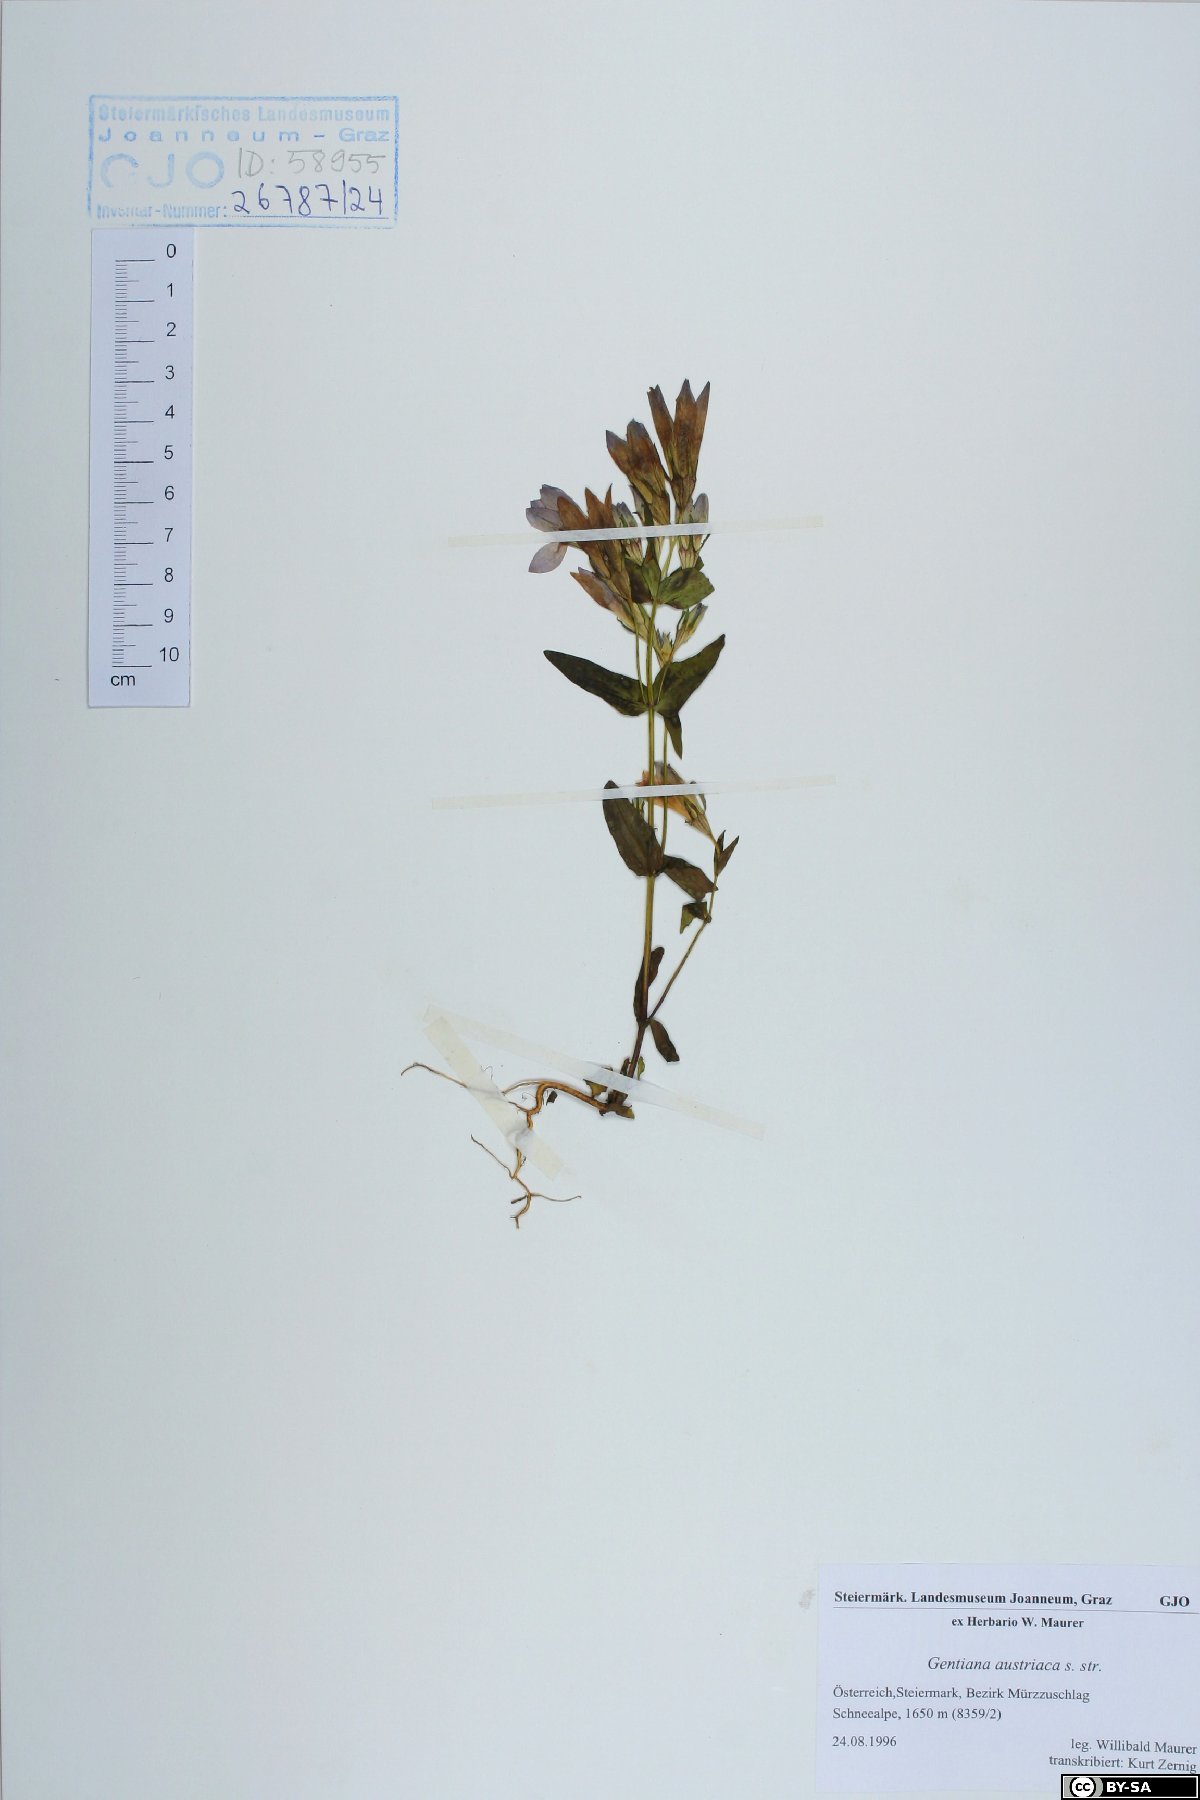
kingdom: Plantae
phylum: Tracheophyta
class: Magnoliopsida
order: Gentianales
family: Gentianaceae
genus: Gentianella
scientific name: Gentianella austriaca
